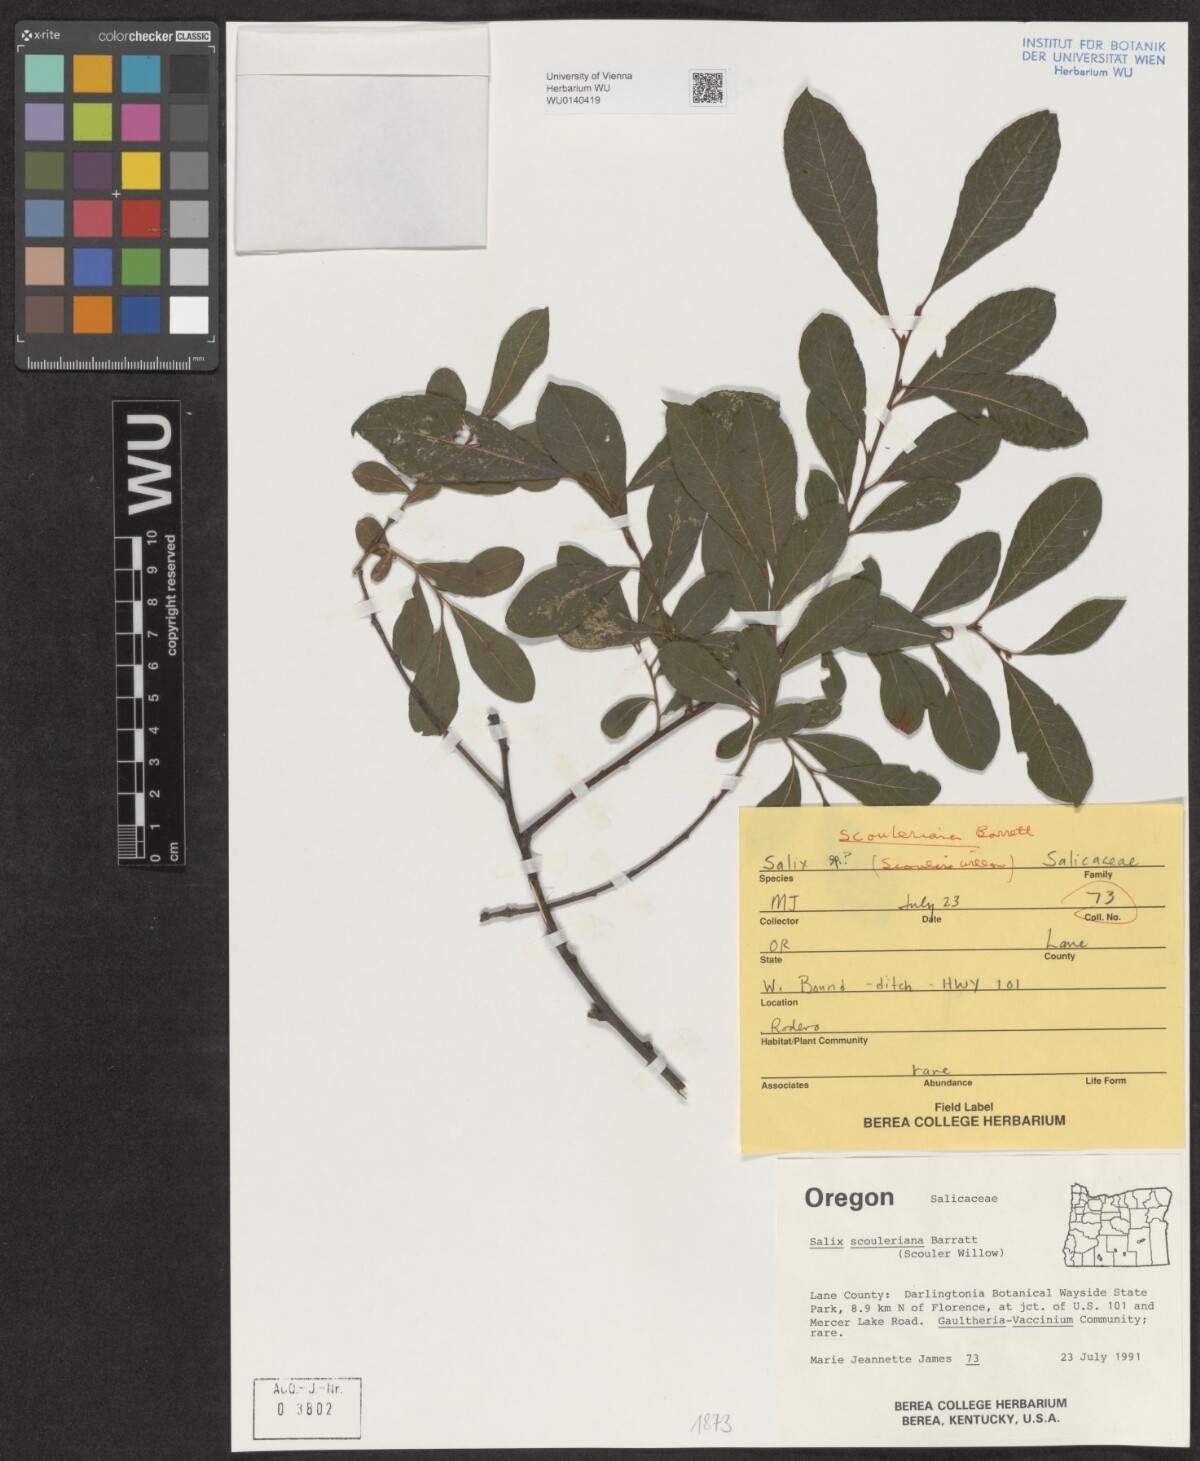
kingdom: Plantae
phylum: Tracheophyta
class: Magnoliopsida
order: Malpighiales
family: Salicaceae
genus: Salix
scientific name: Salix scouleriana
